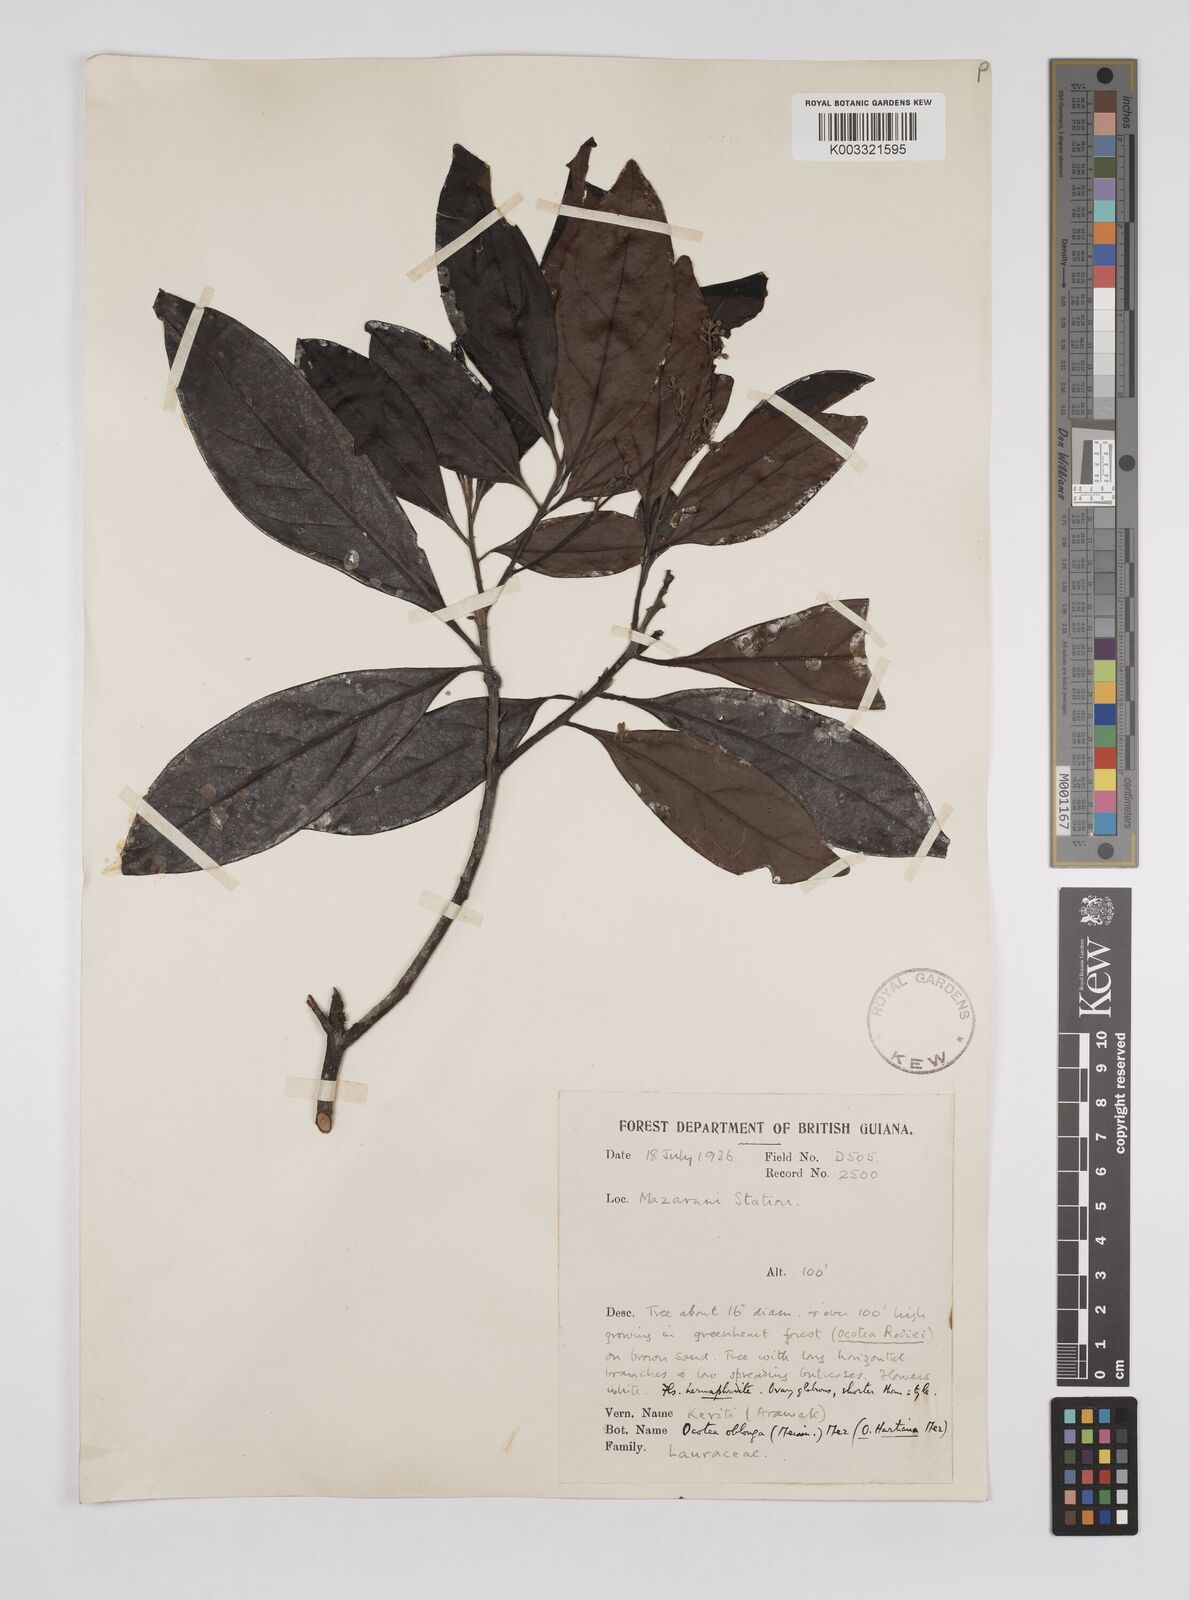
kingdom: Plantae
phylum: Tracheophyta
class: Magnoliopsida
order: Laurales
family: Lauraceae
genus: Ocotea
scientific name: Ocotea oblonga
